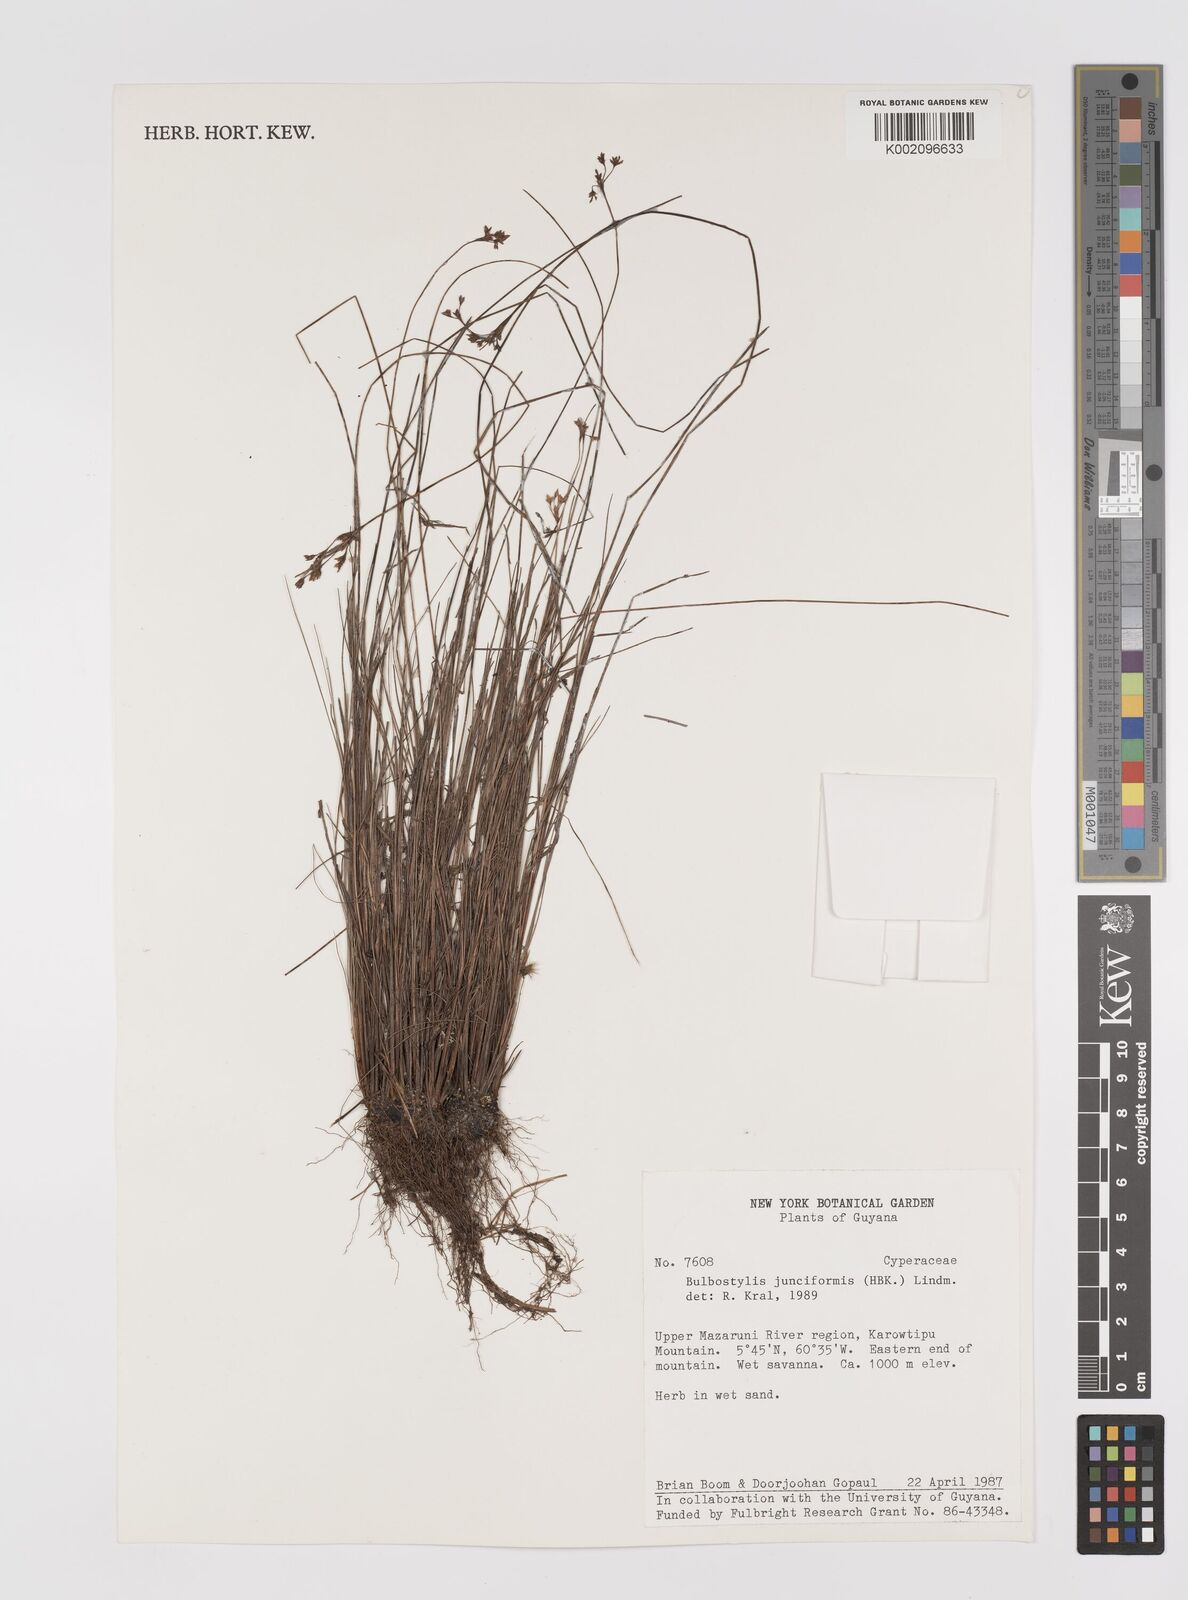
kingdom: Plantae
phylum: Tracheophyta
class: Liliopsida
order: Poales
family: Cyperaceae
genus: Bulbostylis
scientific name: Bulbostylis junciformis
